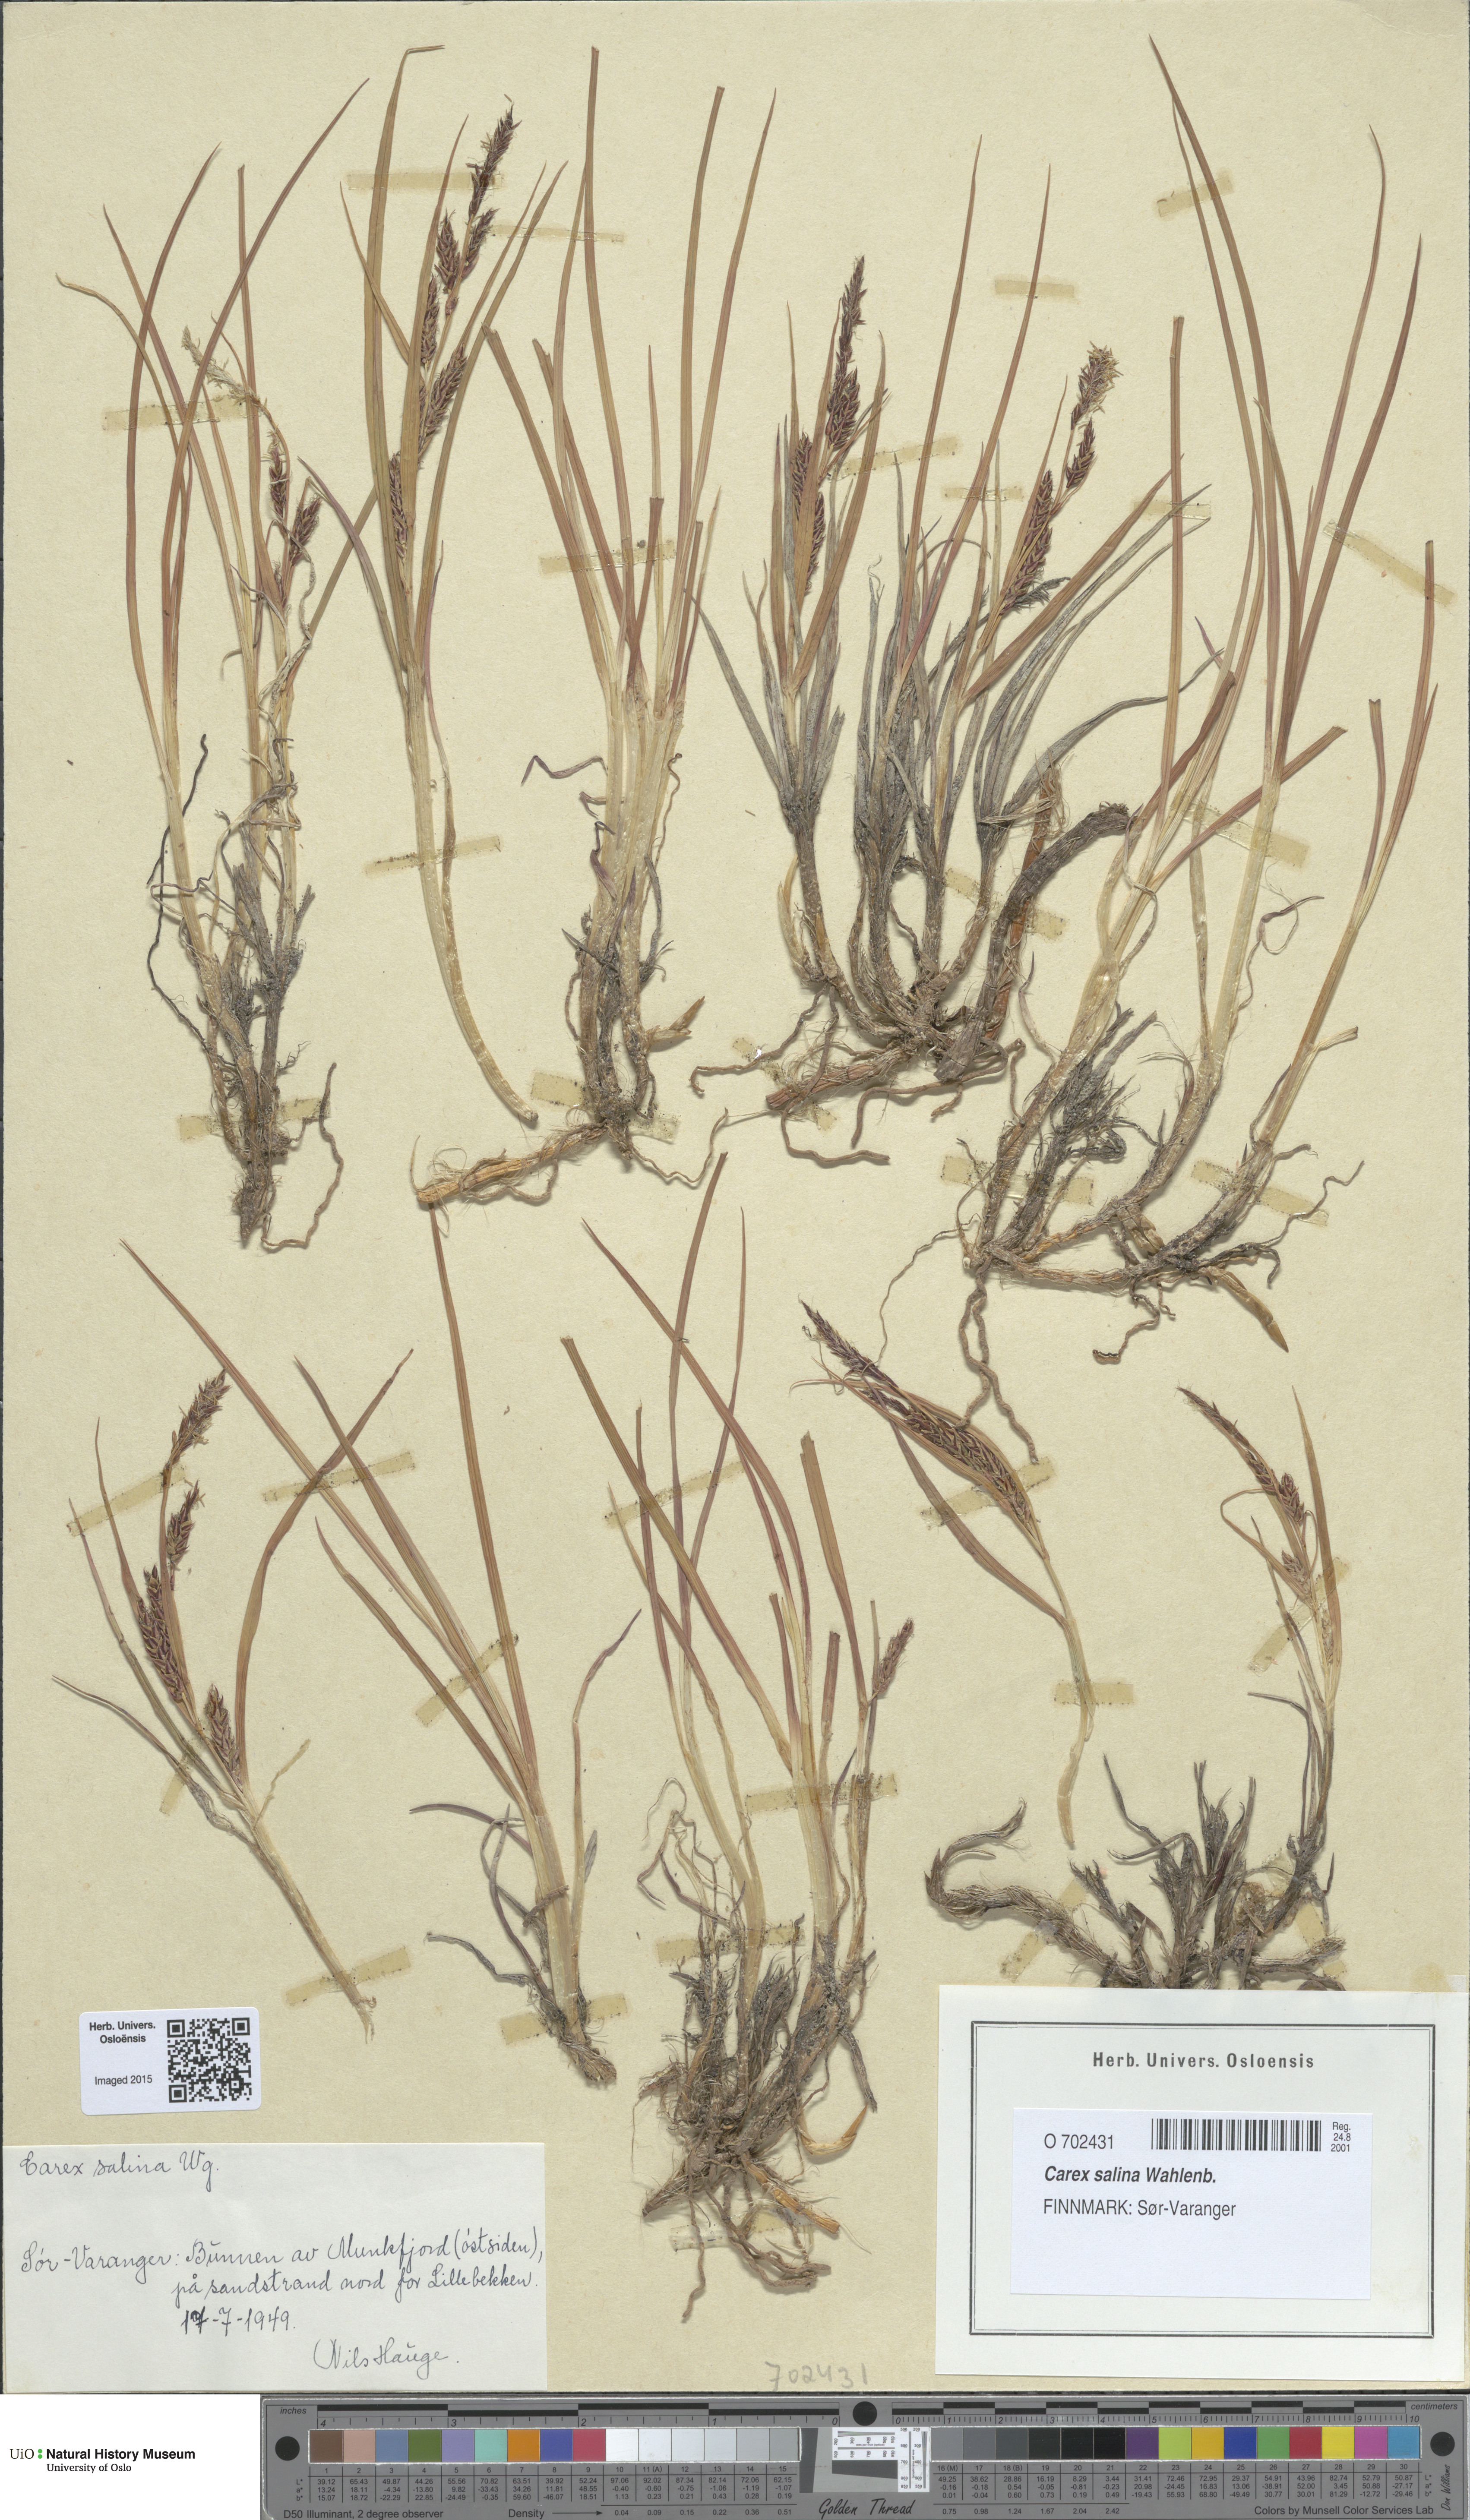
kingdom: Plantae
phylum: Tracheophyta
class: Liliopsida
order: Poales
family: Cyperaceae
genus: Carex
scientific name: Carex salina
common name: Saltmarsh sedge
